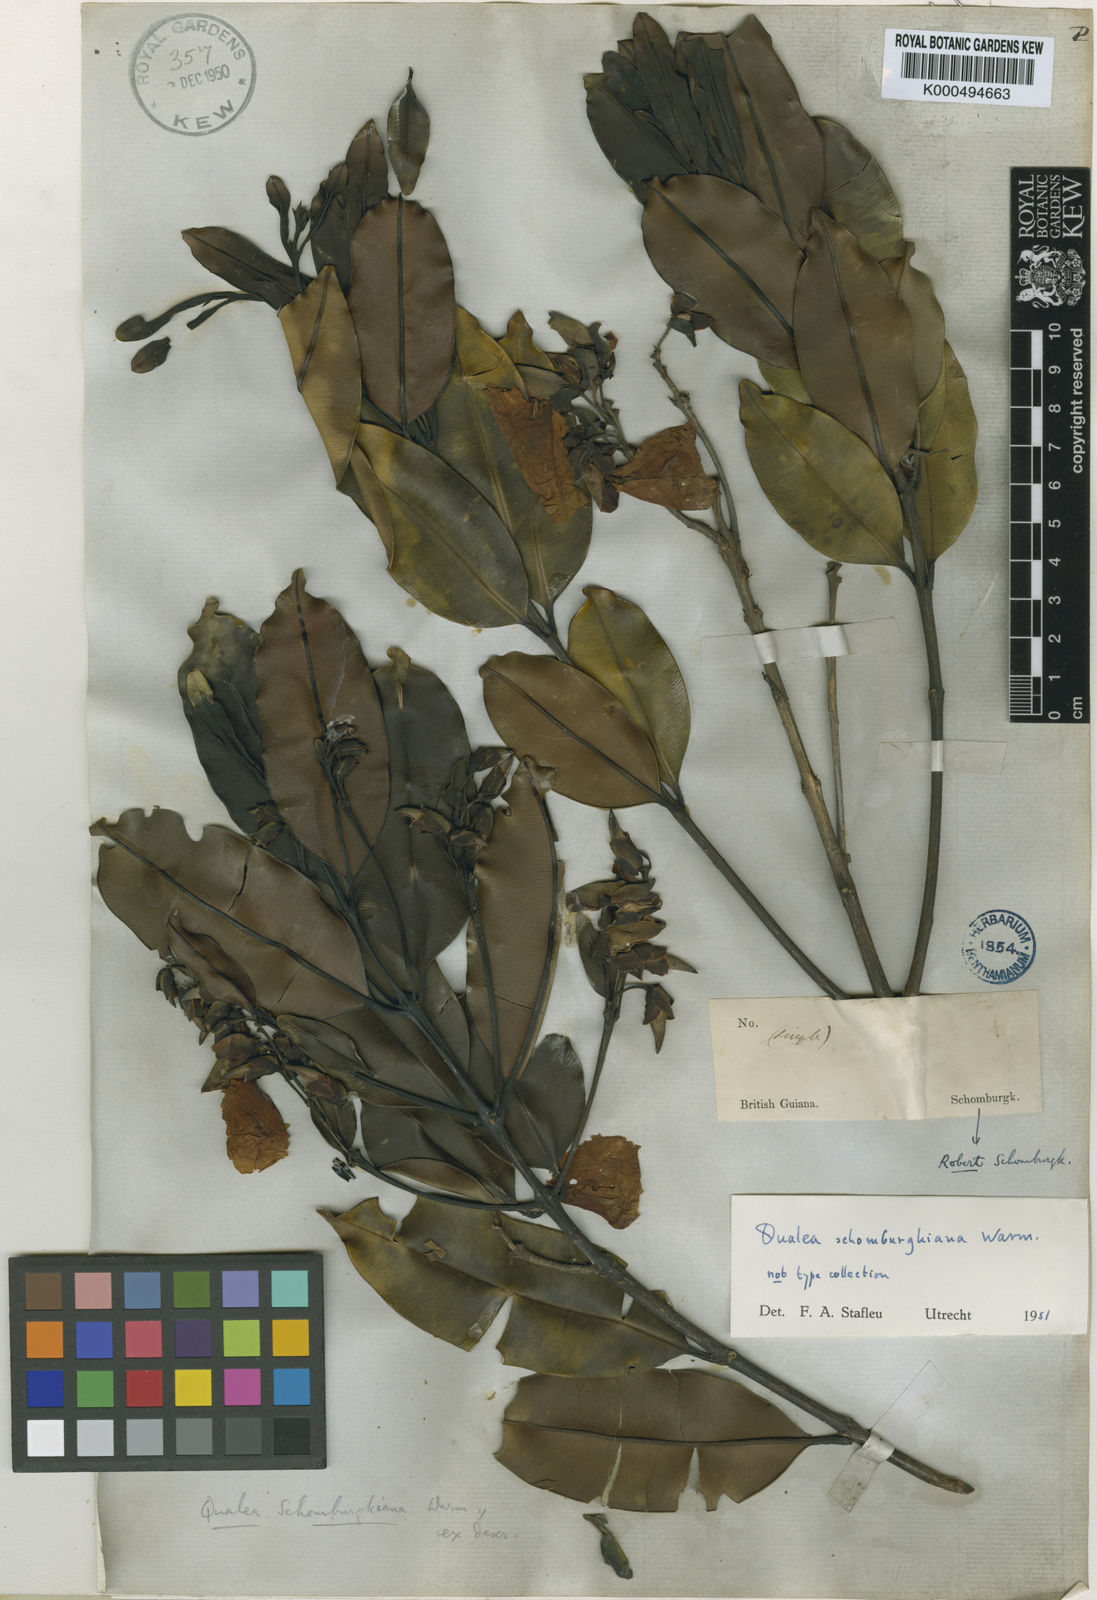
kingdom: Plantae
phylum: Tracheophyta
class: Magnoliopsida
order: Myrtales
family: Vochysiaceae
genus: Qualea
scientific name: Qualea schomburgkiana
